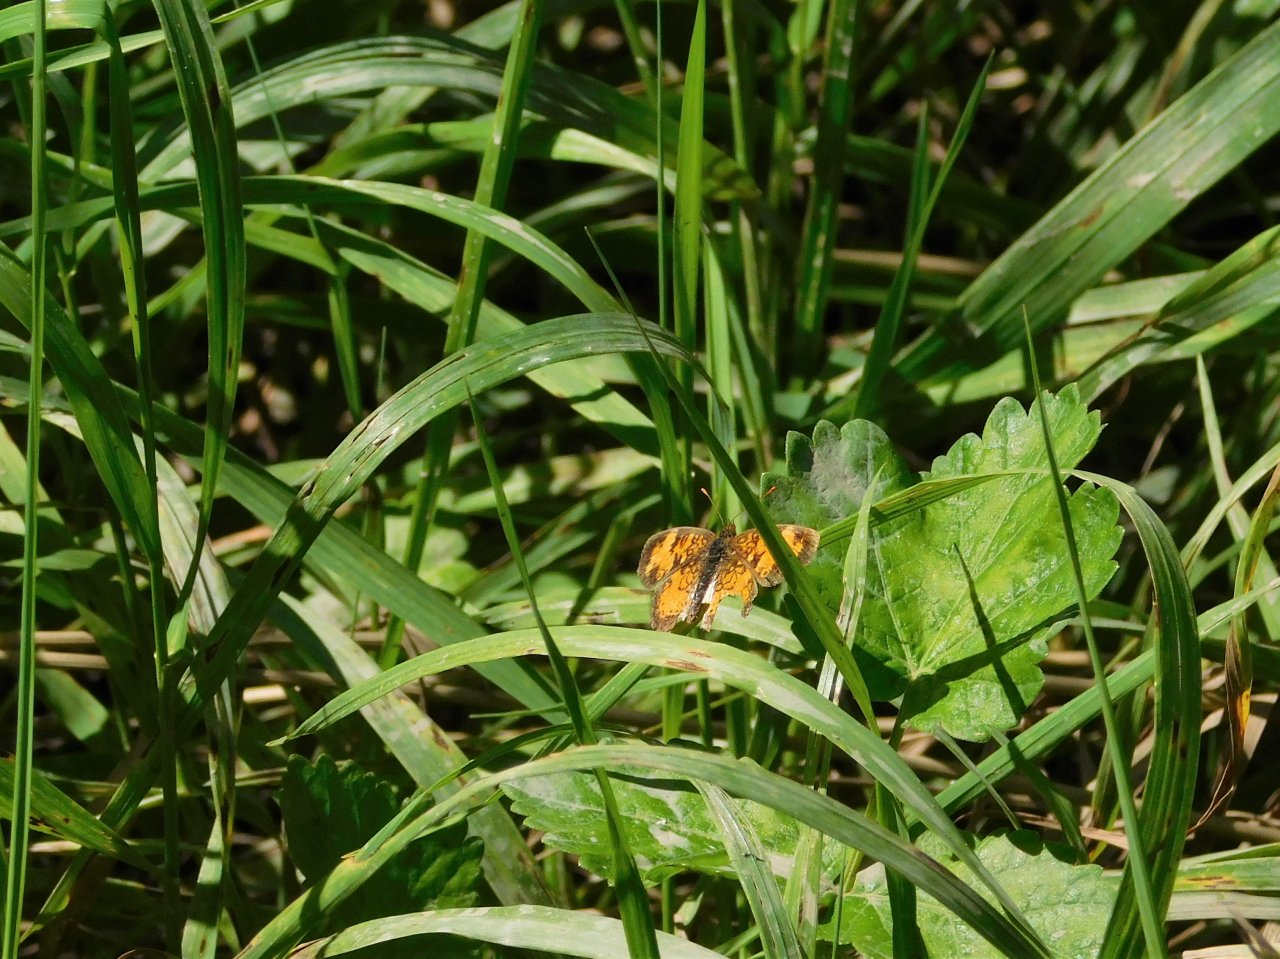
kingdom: Animalia
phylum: Arthropoda
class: Insecta
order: Lepidoptera
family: Nymphalidae
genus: Phyciodes
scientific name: Phyciodes tharos
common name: Northern Crescent
